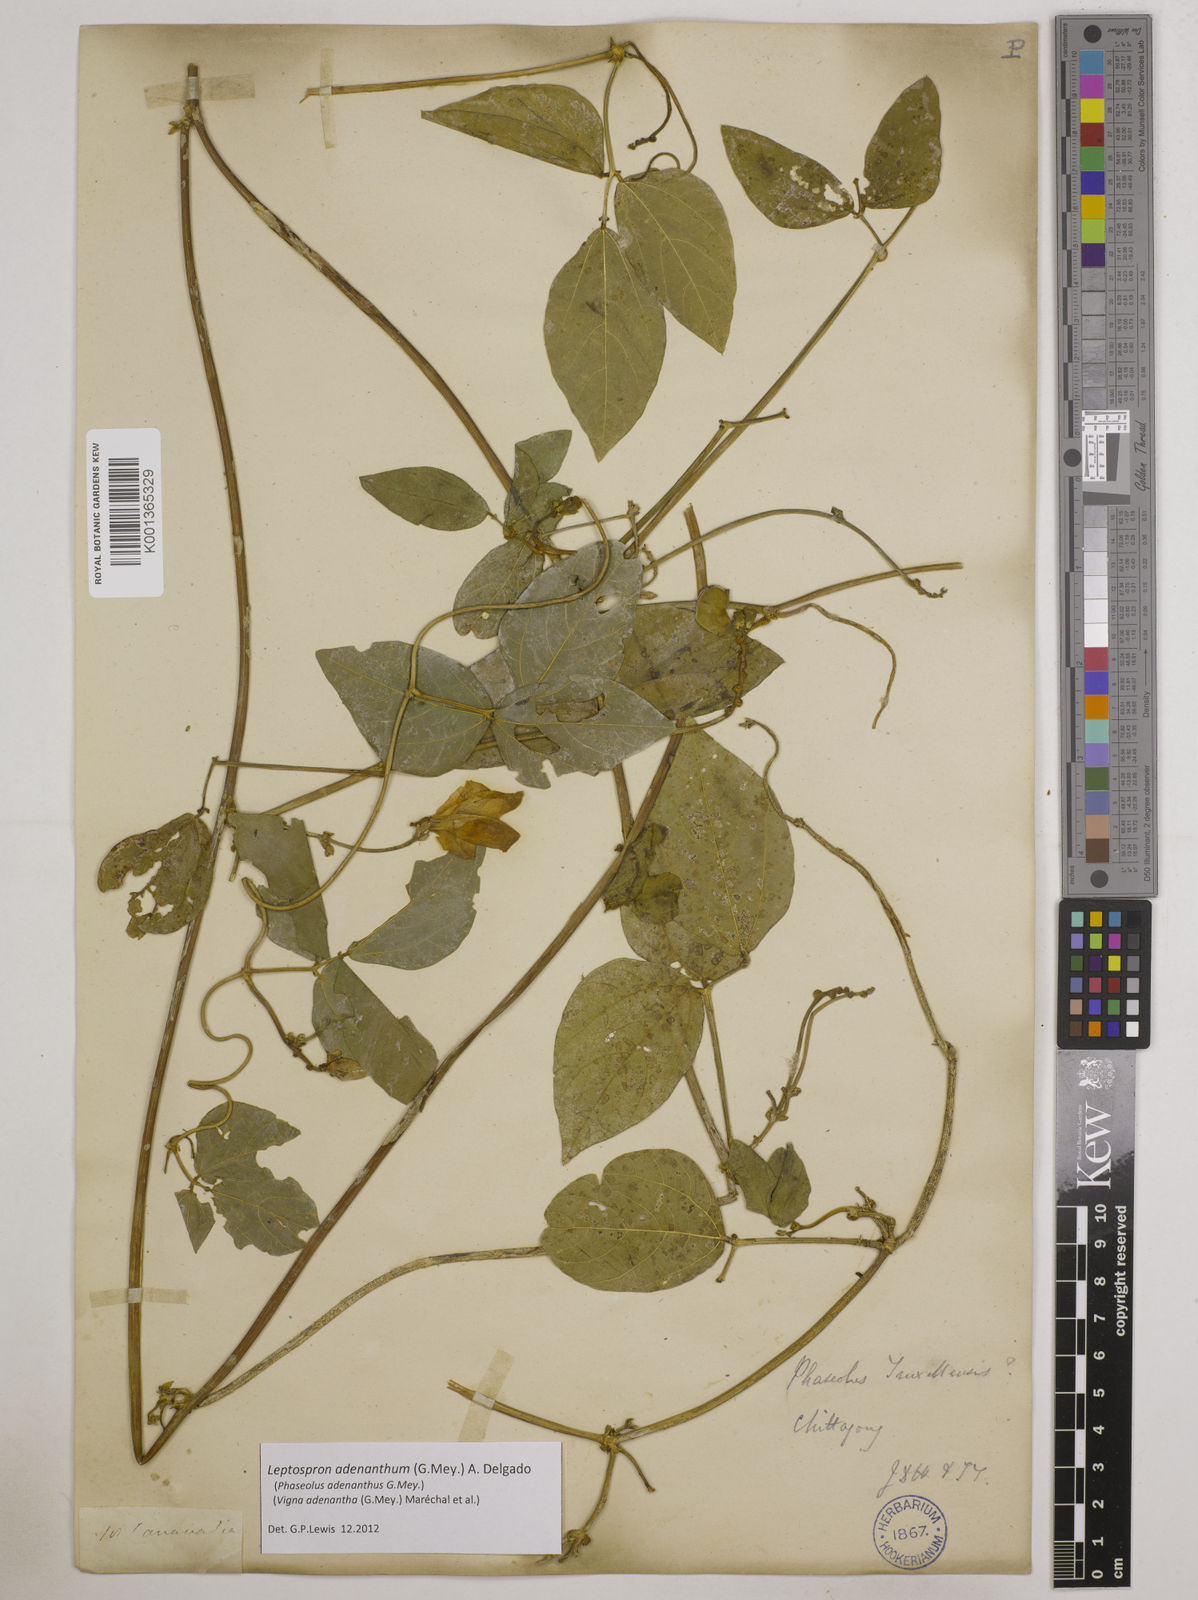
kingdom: Plantae
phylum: Tracheophyta
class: Magnoliopsida
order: Fabales
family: Fabaceae
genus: Leptospron
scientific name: Leptospron adenanthum
